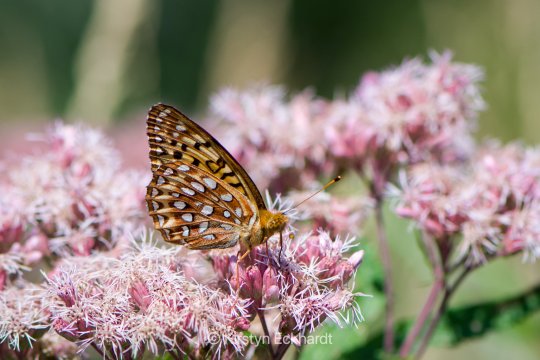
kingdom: Animalia
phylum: Arthropoda
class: Insecta
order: Lepidoptera
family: Nymphalidae
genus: Speyeria
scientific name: Speyeria aphrodite
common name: Aphrodite Fritillary
